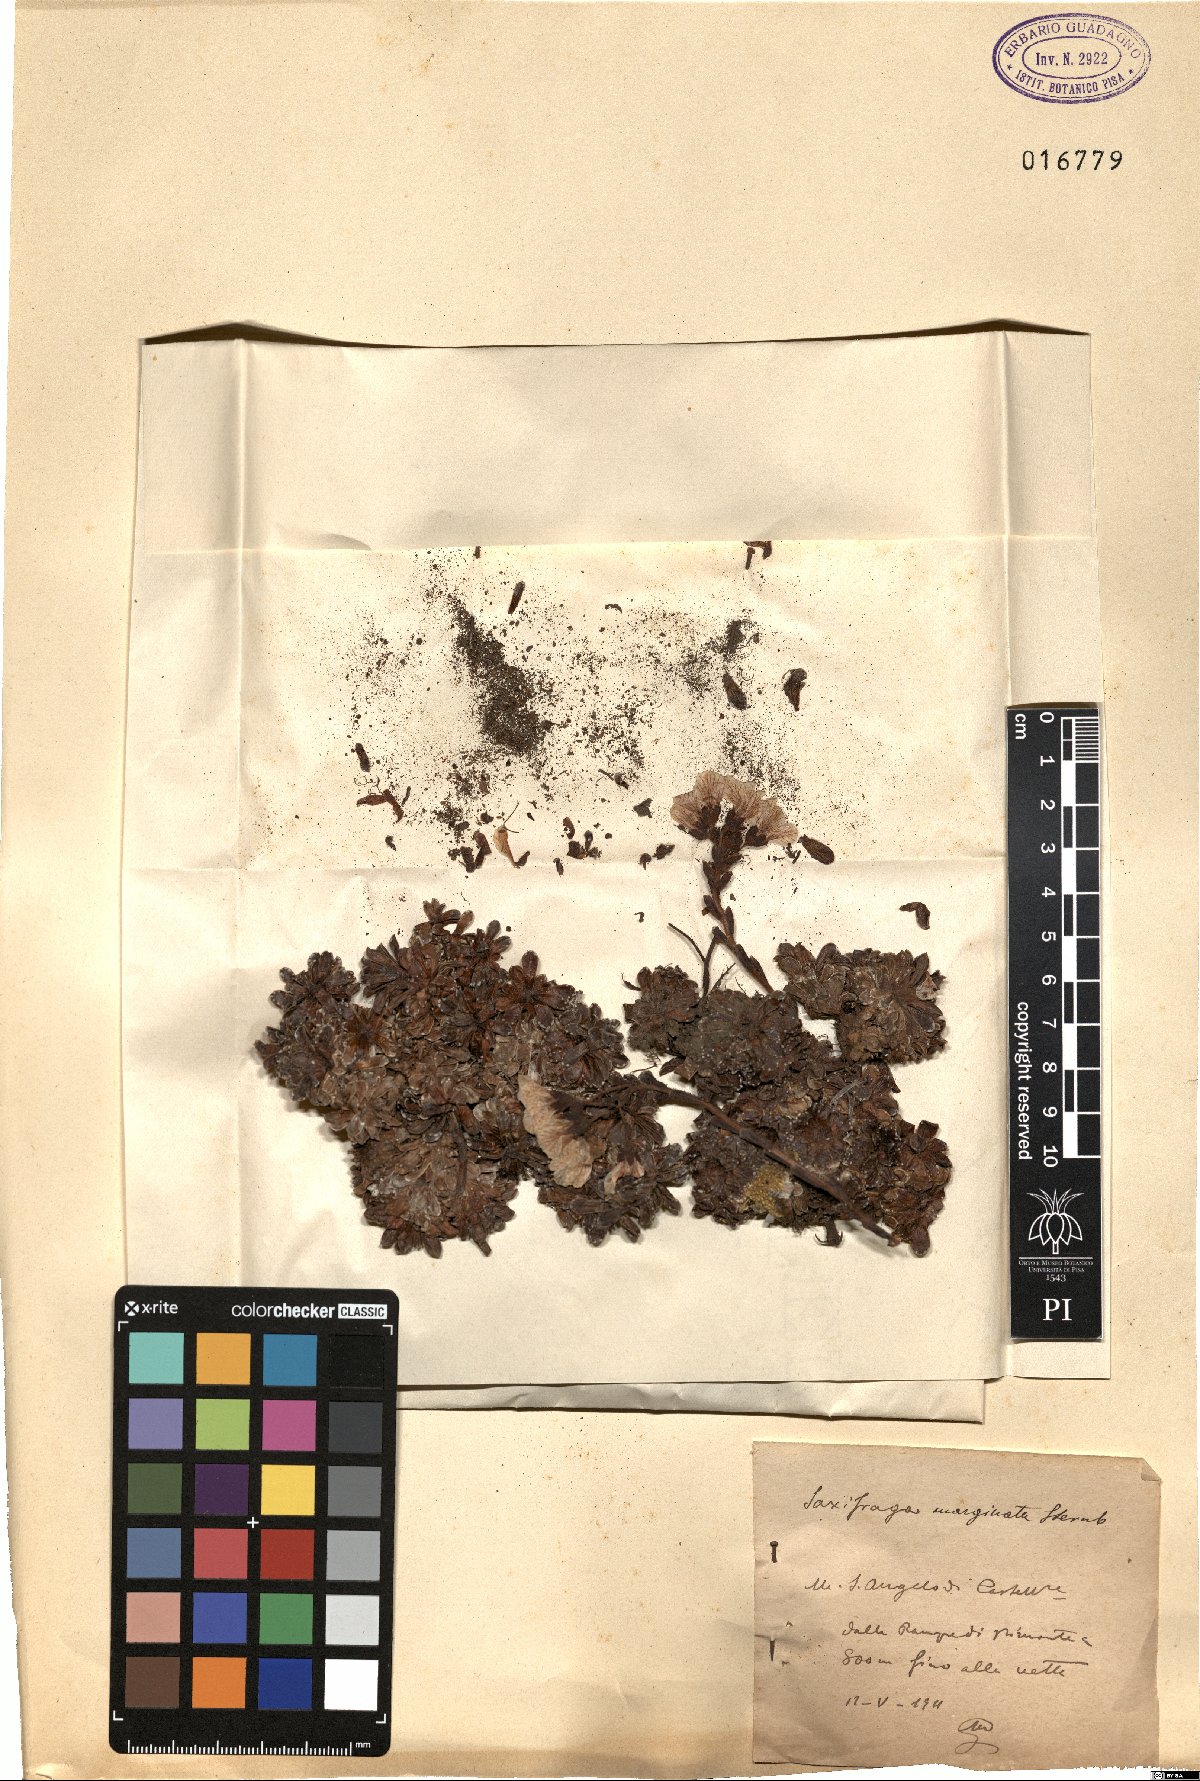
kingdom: Plantae
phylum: Tracheophyta
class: Magnoliopsida
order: Saxifragales
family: Saxifragaceae
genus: Saxifraga
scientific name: Saxifraga marginata
